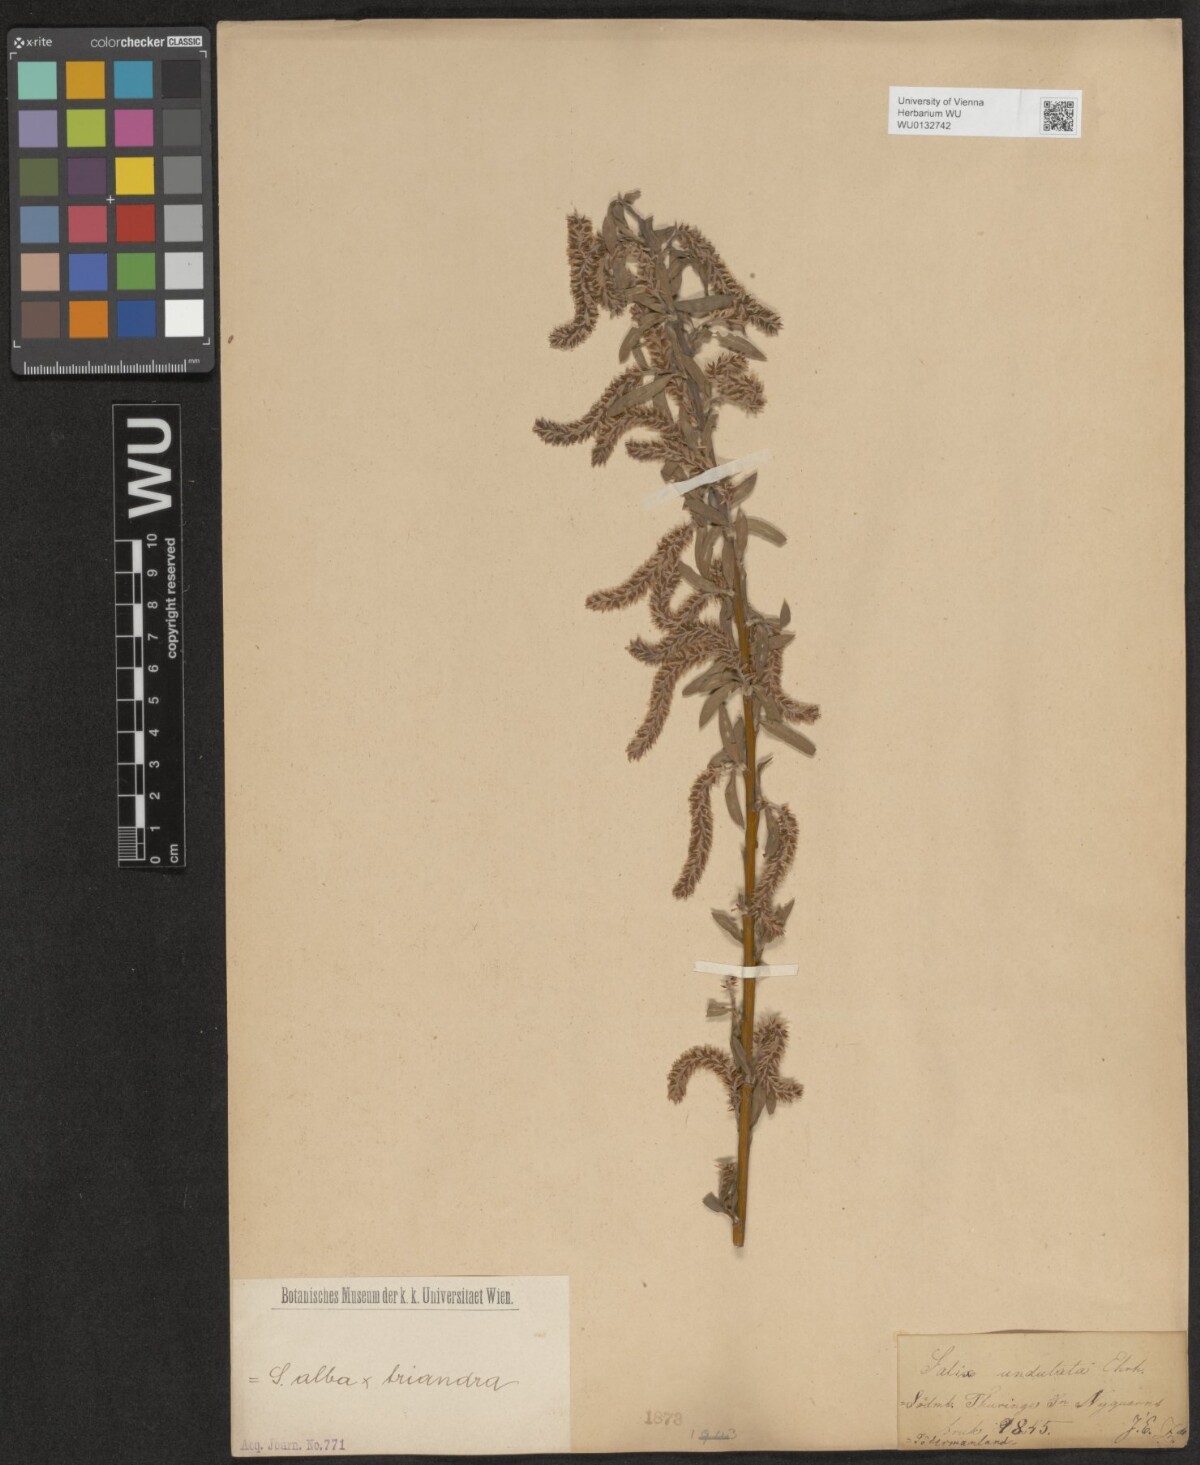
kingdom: Plantae
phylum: Tracheophyta
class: Magnoliopsida
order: Malpighiales
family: Salicaceae
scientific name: Salicaceae
